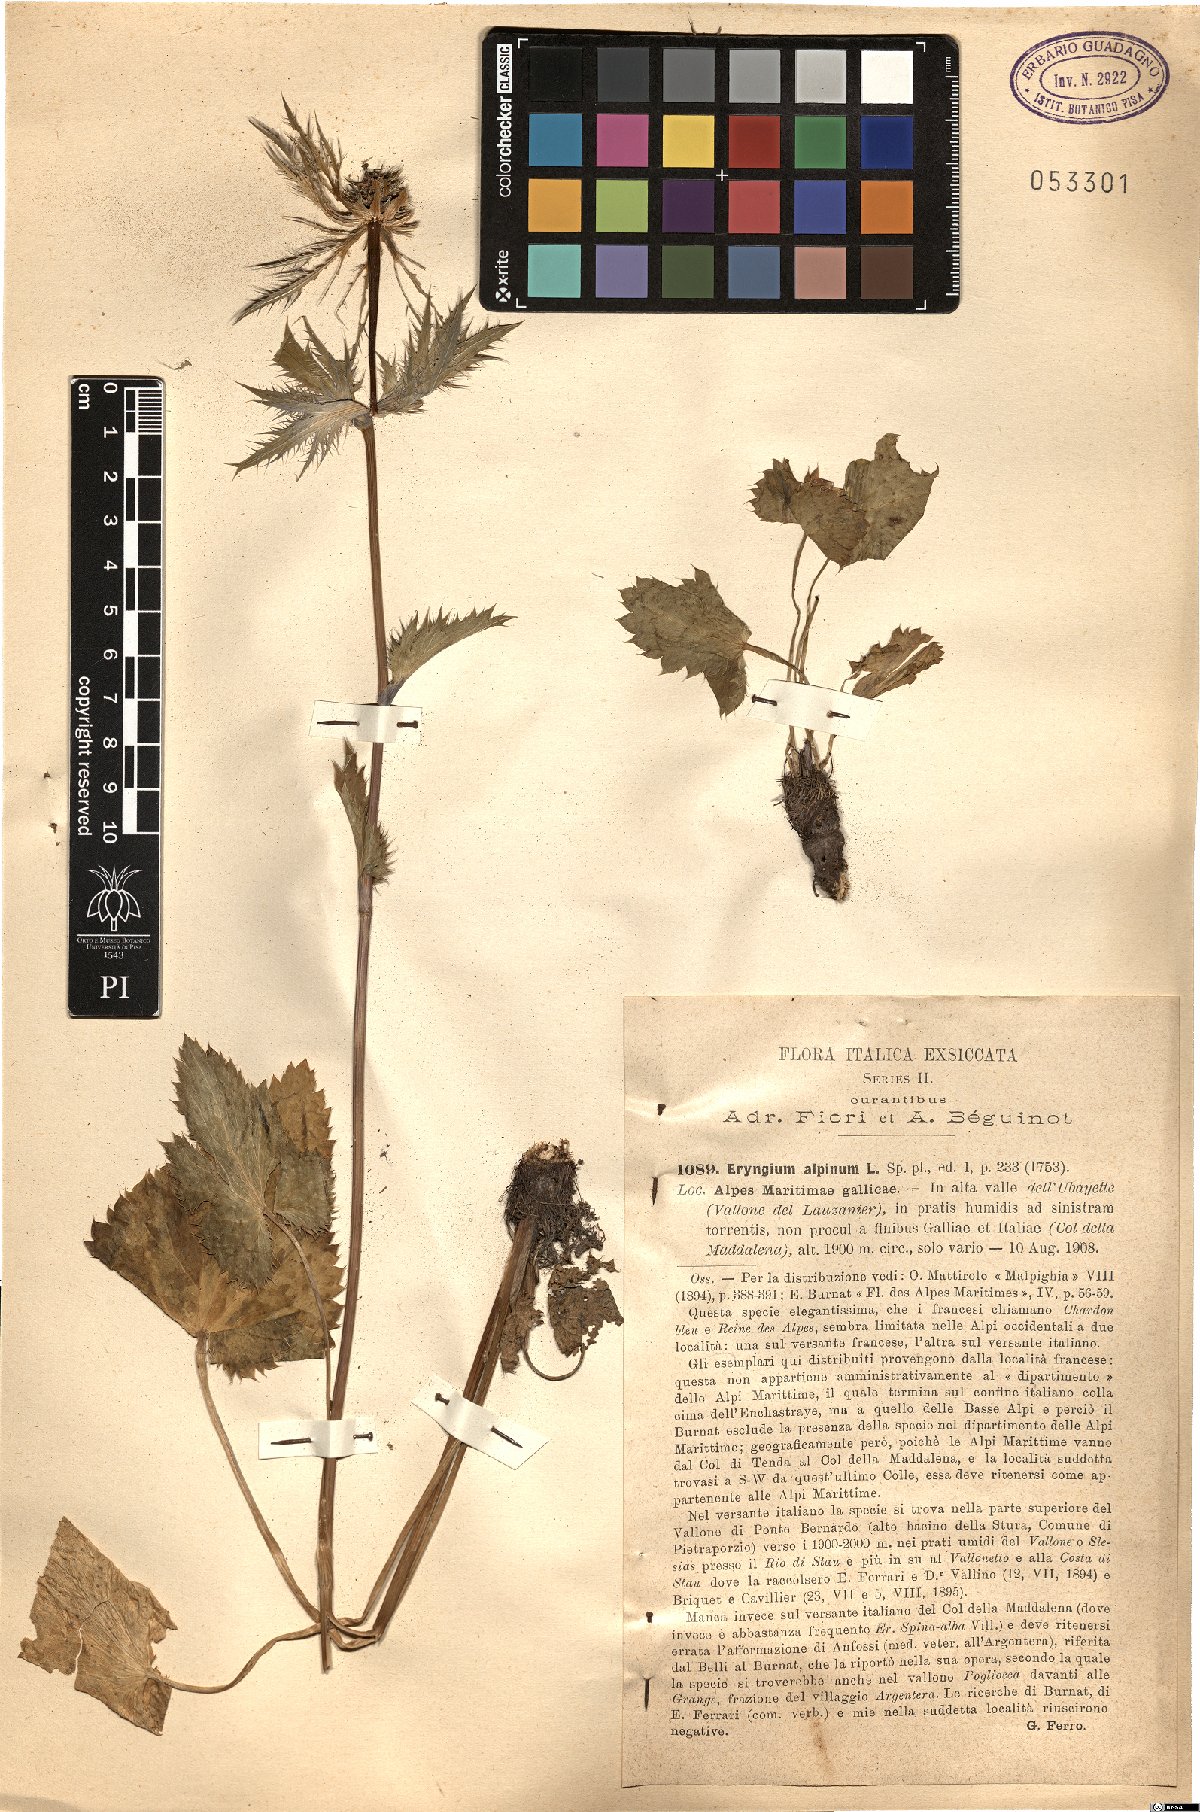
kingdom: Plantae
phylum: Tracheophyta
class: Magnoliopsida
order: Apiales
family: Apiaceae
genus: Eryngium
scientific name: Eryngium alpinum
